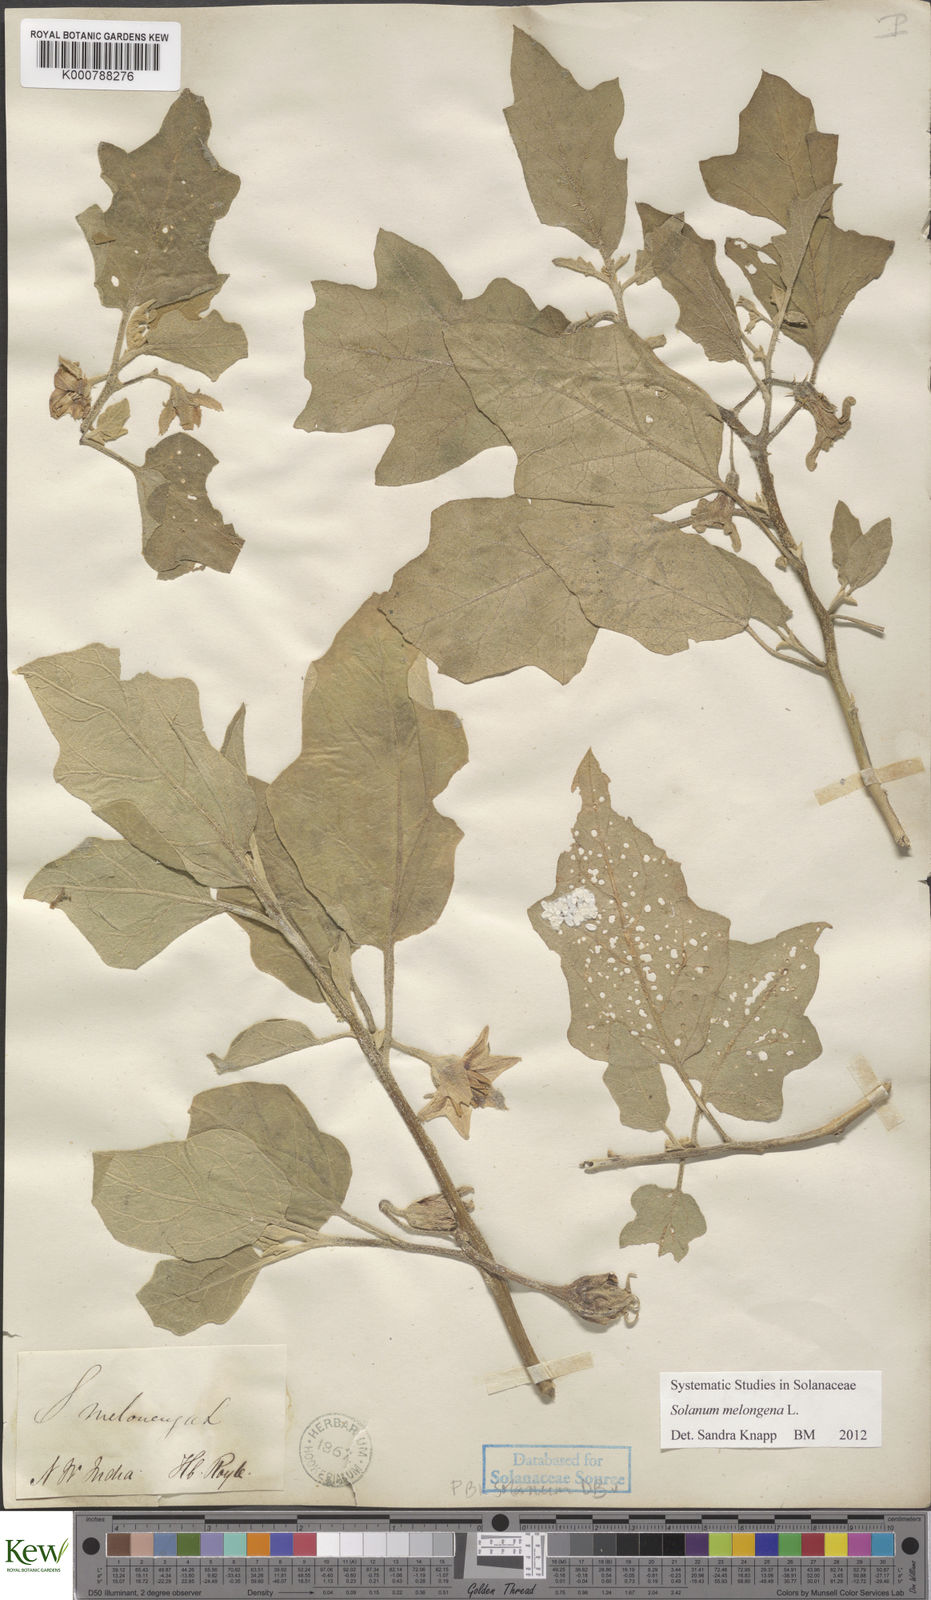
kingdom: Plantae
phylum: Tracheophyta
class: Magnoliopsida
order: Solanales
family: Solanaceae
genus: Solanum
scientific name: Solanum melongena
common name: Eggplant
